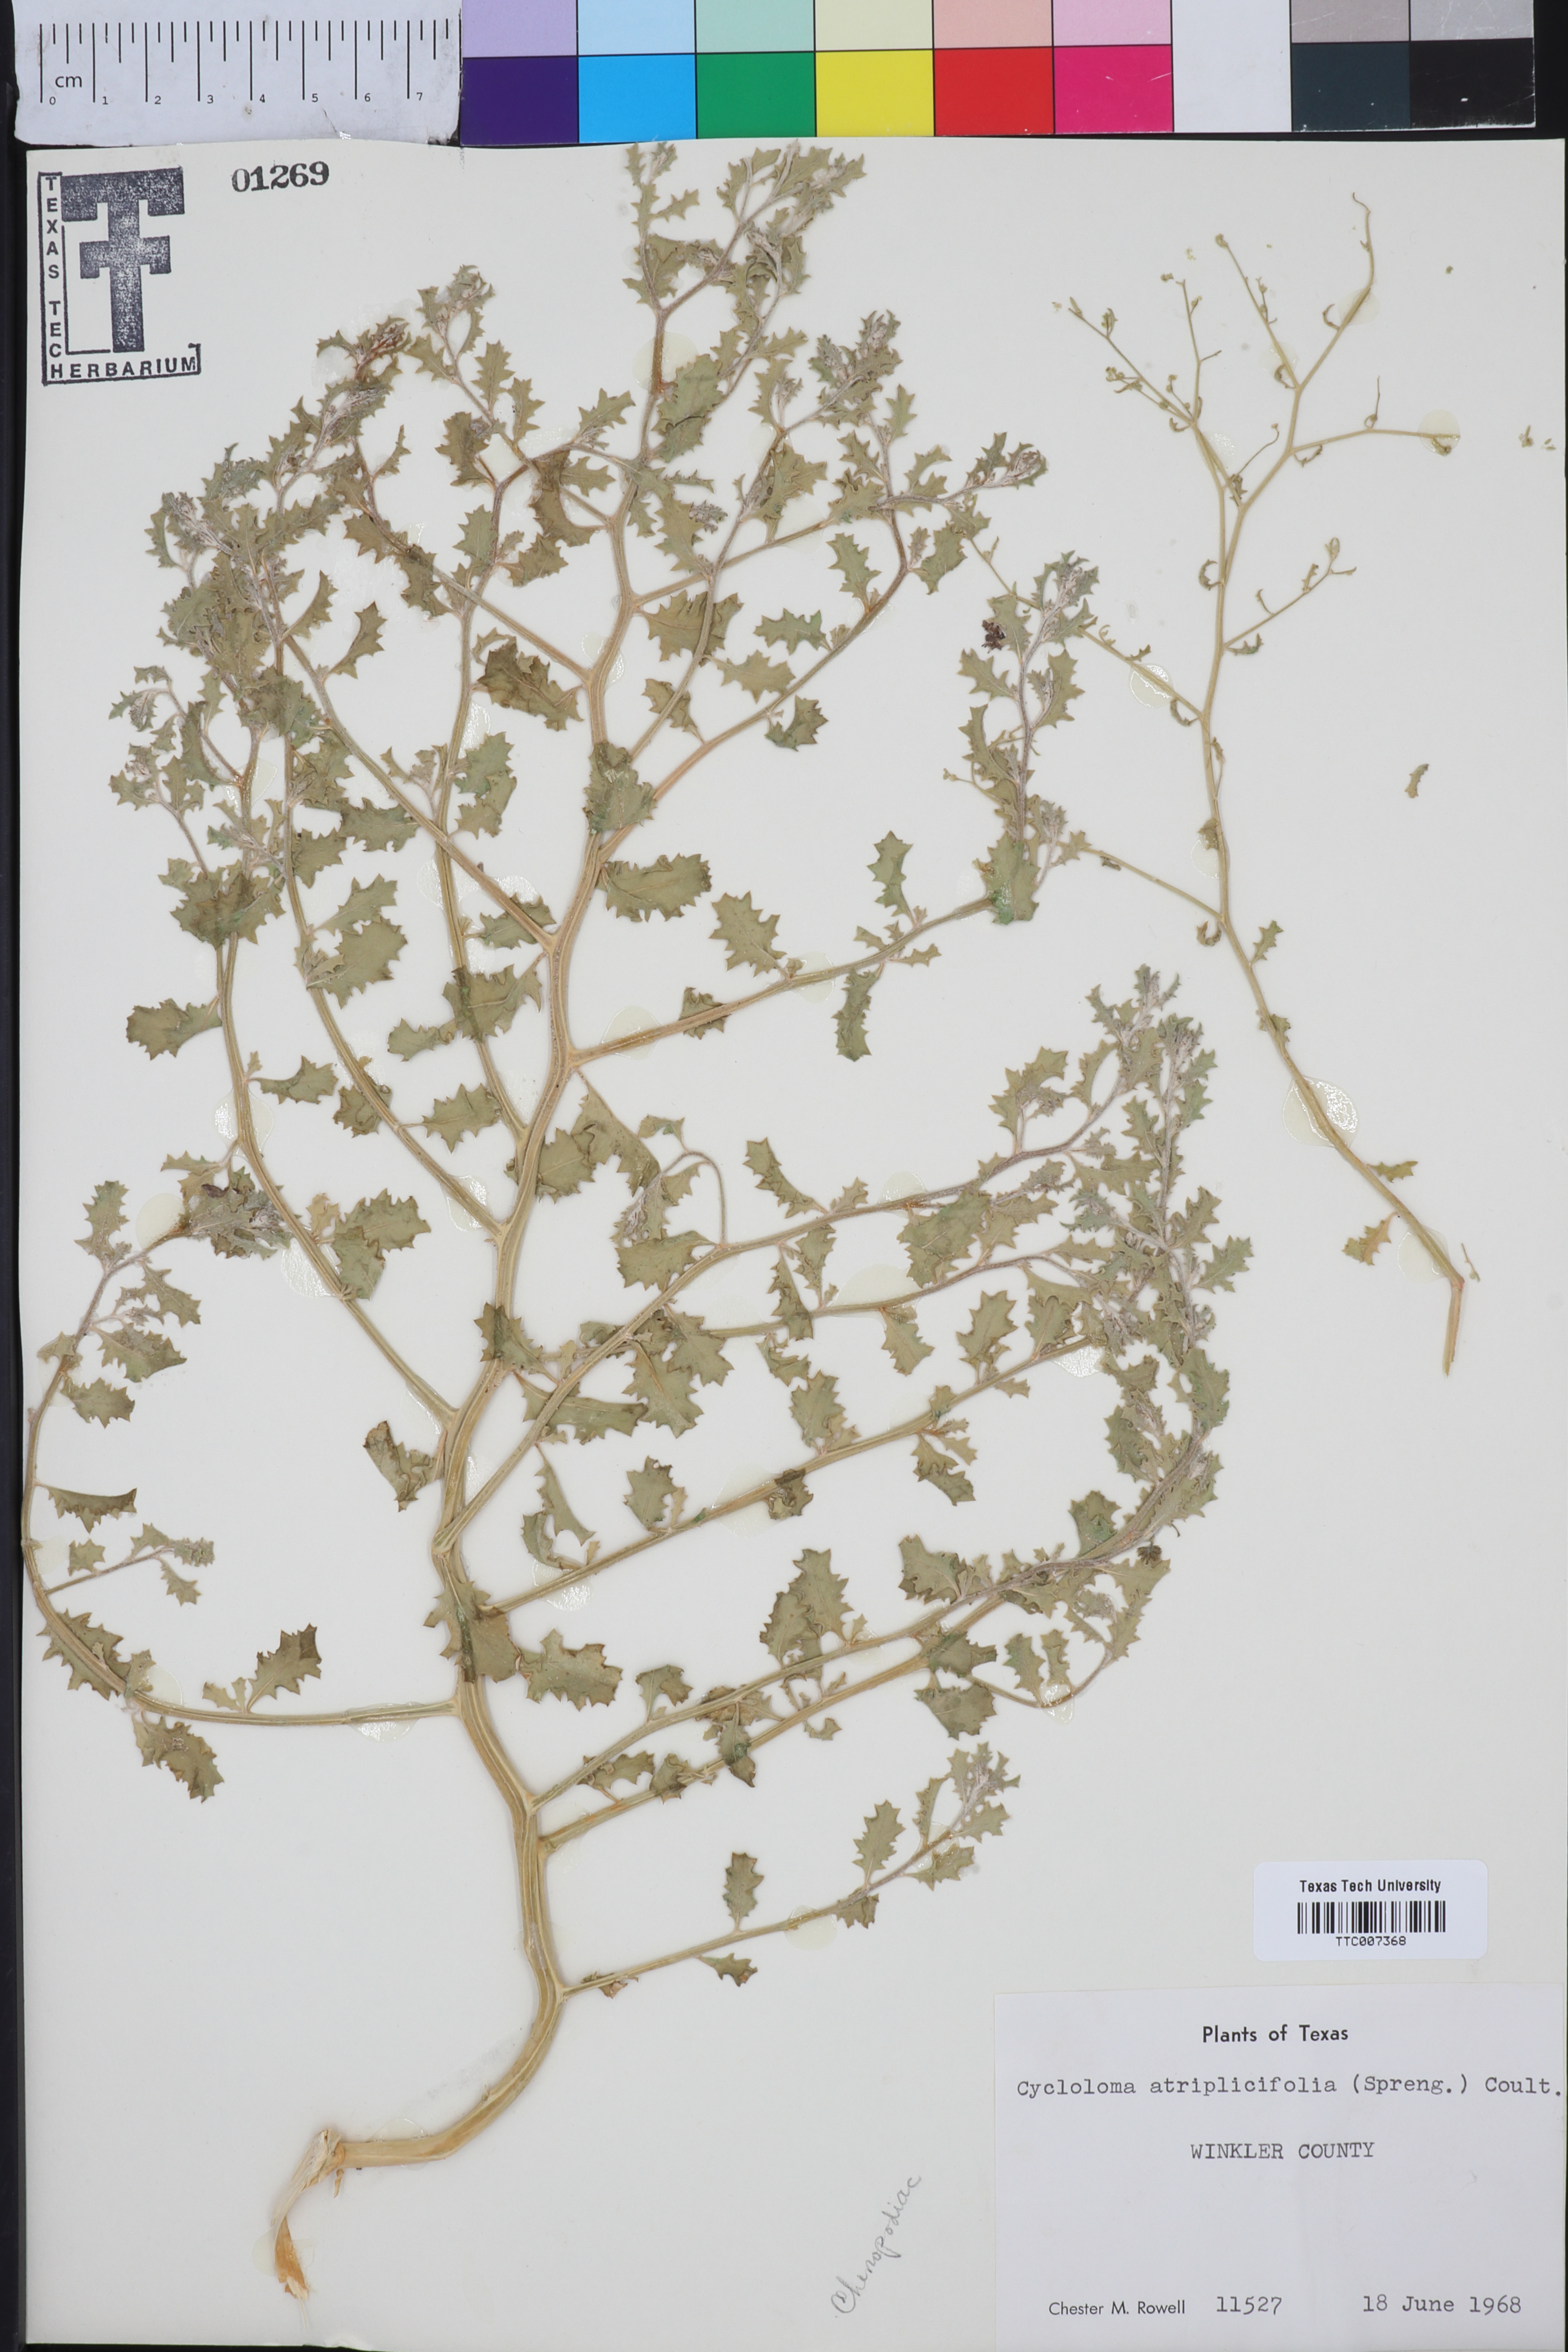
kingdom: Plantae
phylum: Tracheophyta
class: Magnoliopsida
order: Caryophyllales
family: Amaranthaceae
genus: Dysphania
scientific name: Dysphania atriplicifolia
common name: Plains tumbleweed
